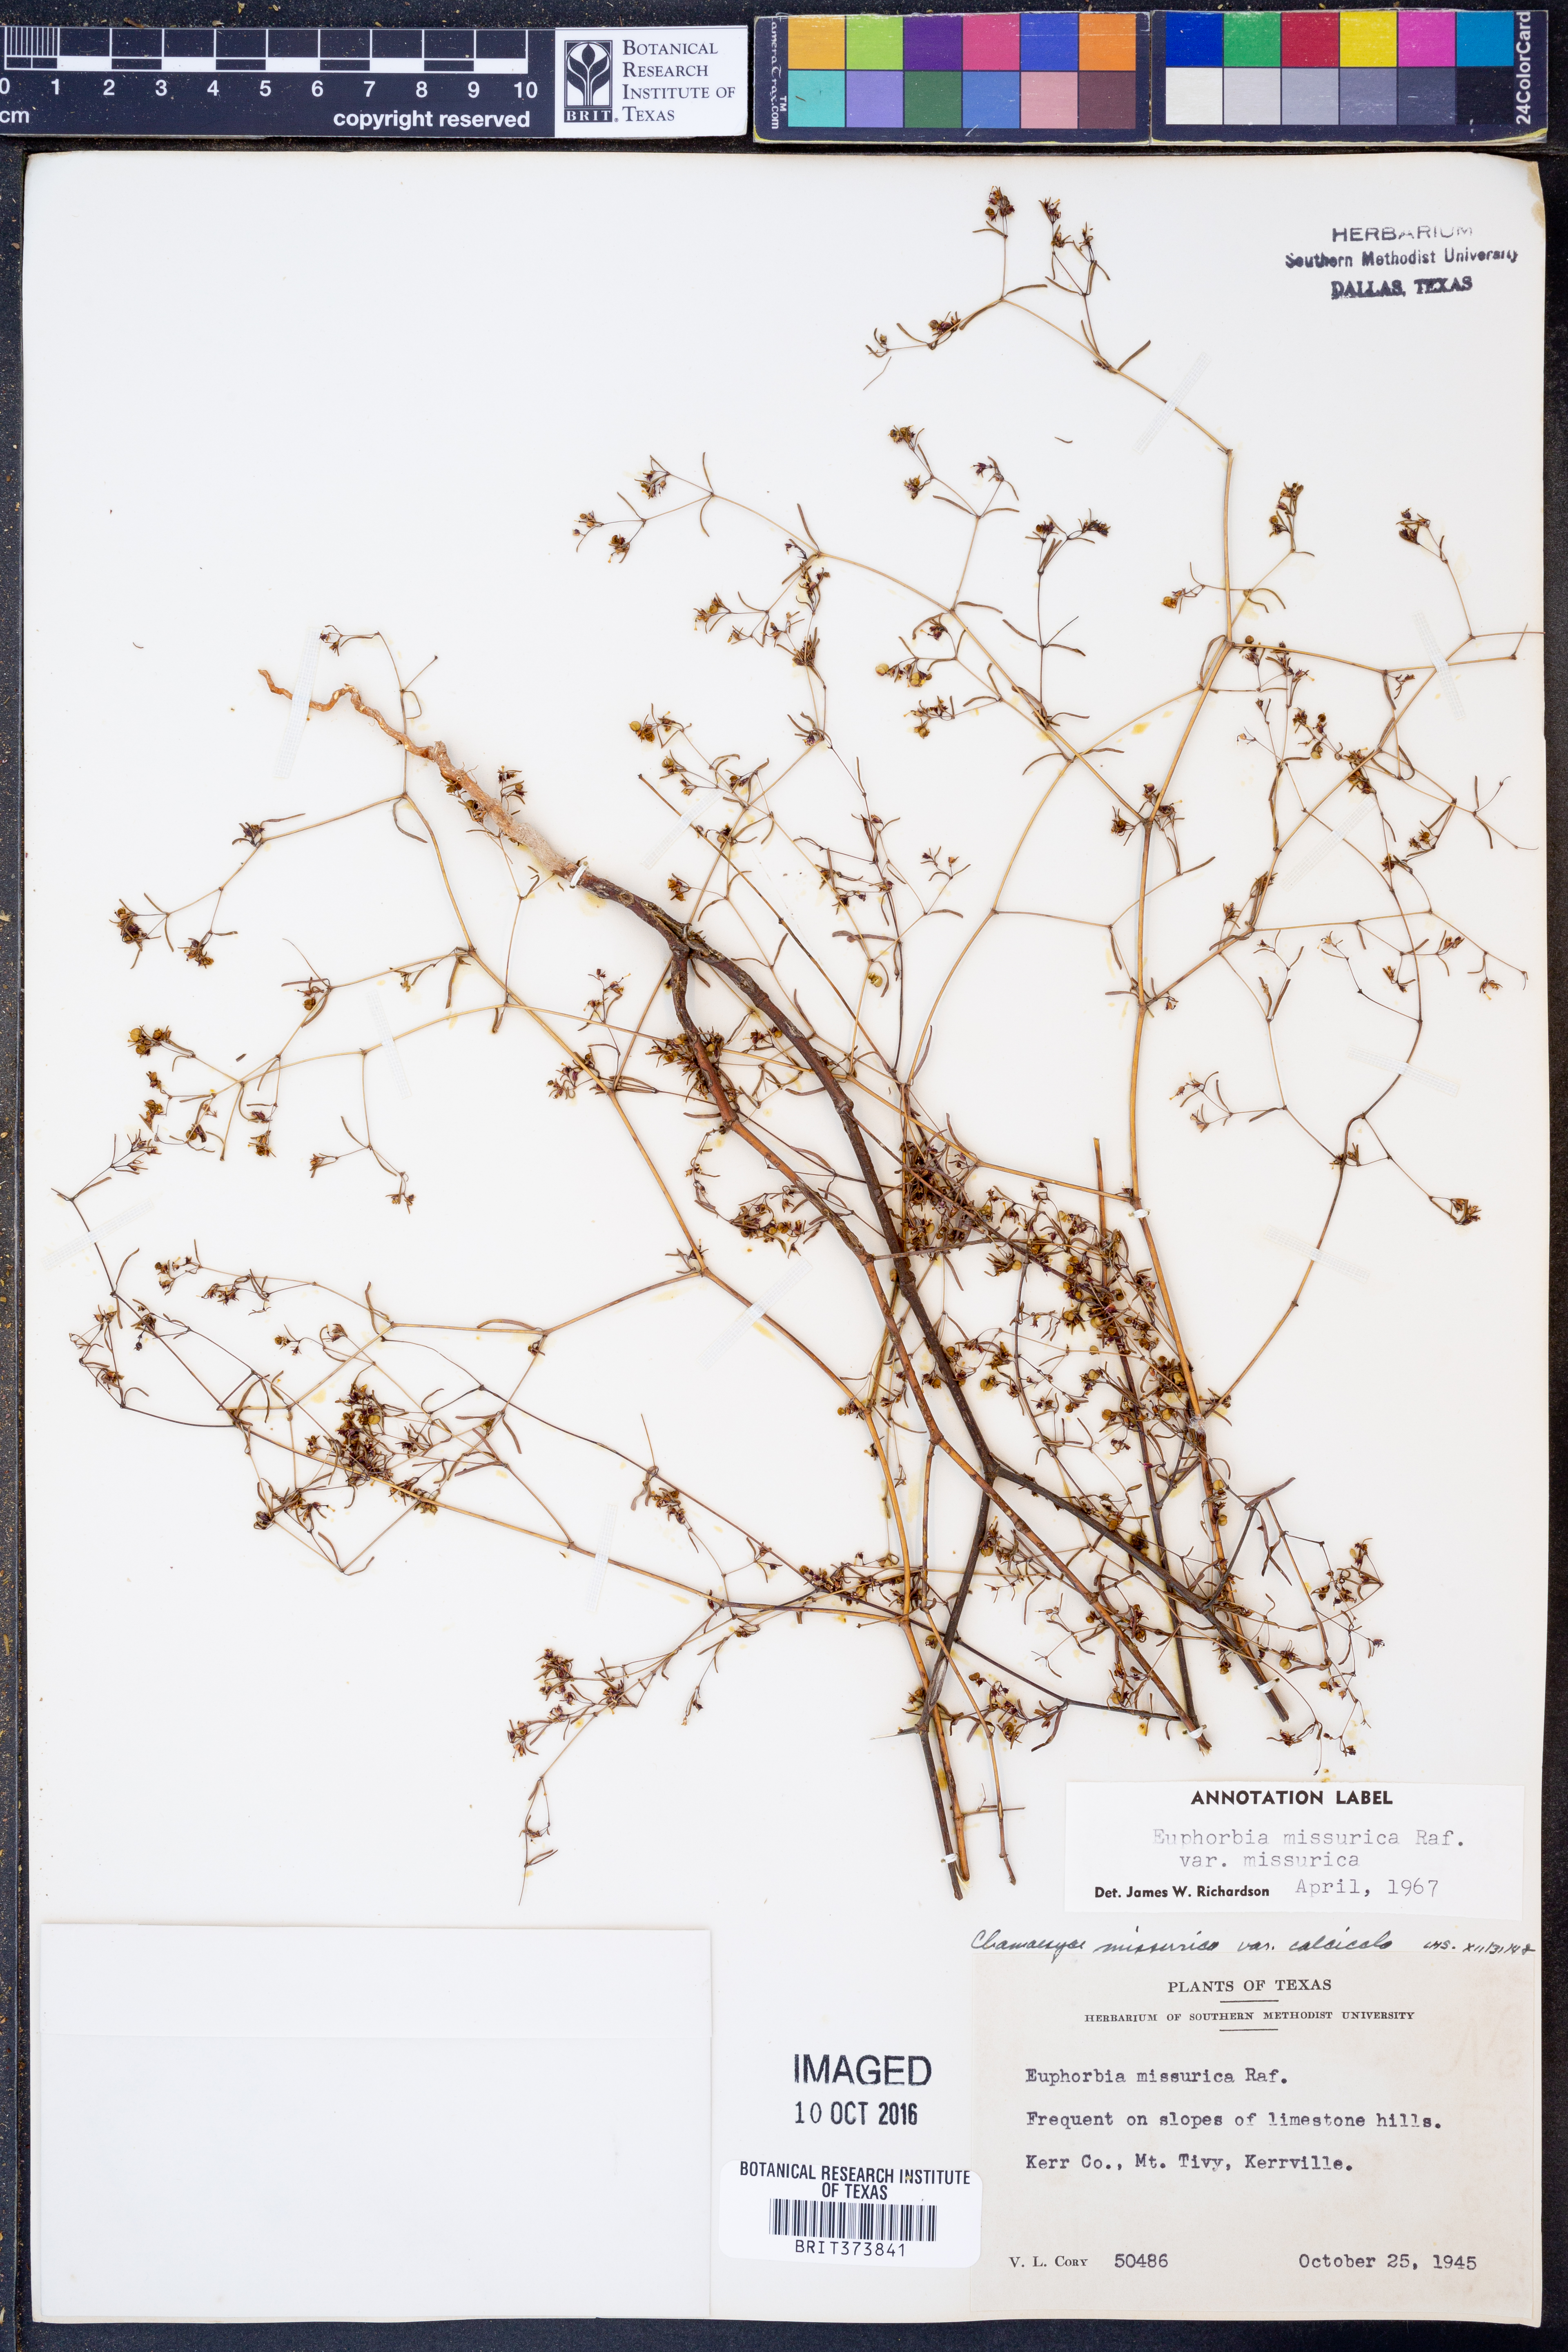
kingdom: Plantae
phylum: Tracheophyta
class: Magnoliopsida
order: Malpighiales
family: Euphorbiaceae
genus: Euphorbia
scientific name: Euphorbia missurica
